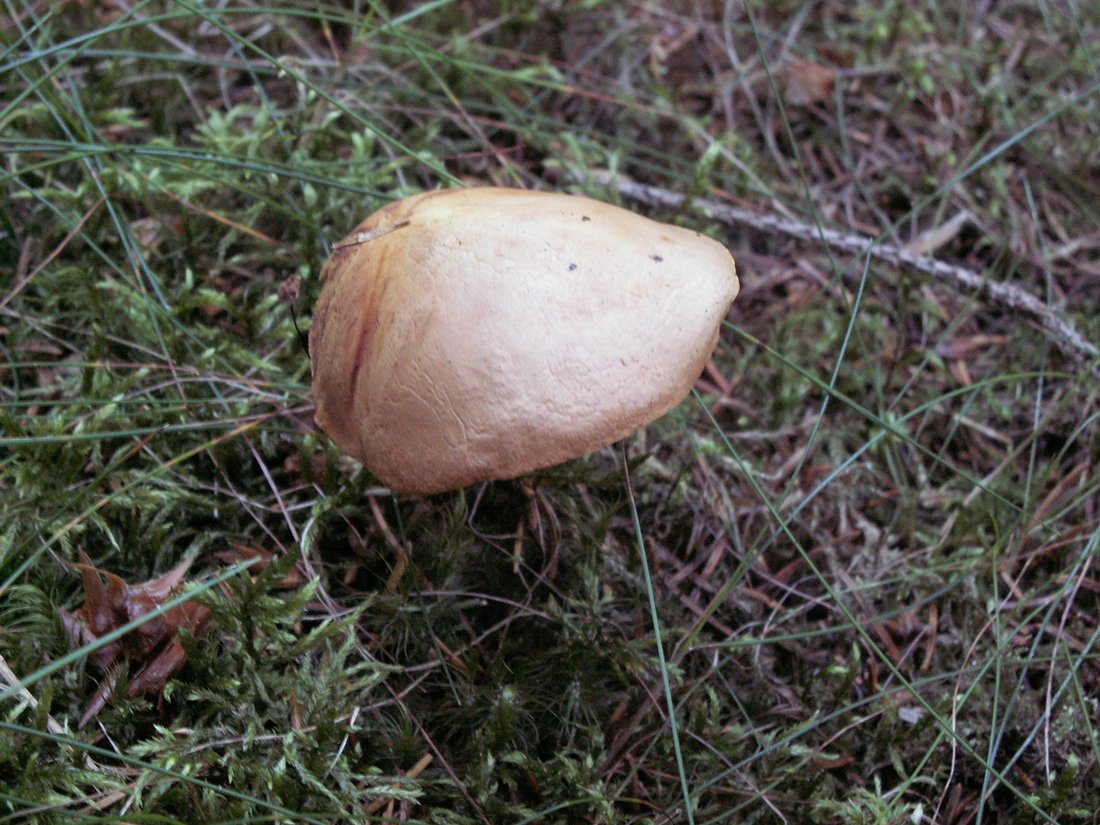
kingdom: Fungi
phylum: Basidiomycota
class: Agaricomycetes
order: Boletales
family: Boletaceae
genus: Chalciporus
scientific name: Chalciporus piperatus
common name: peberrørhat
